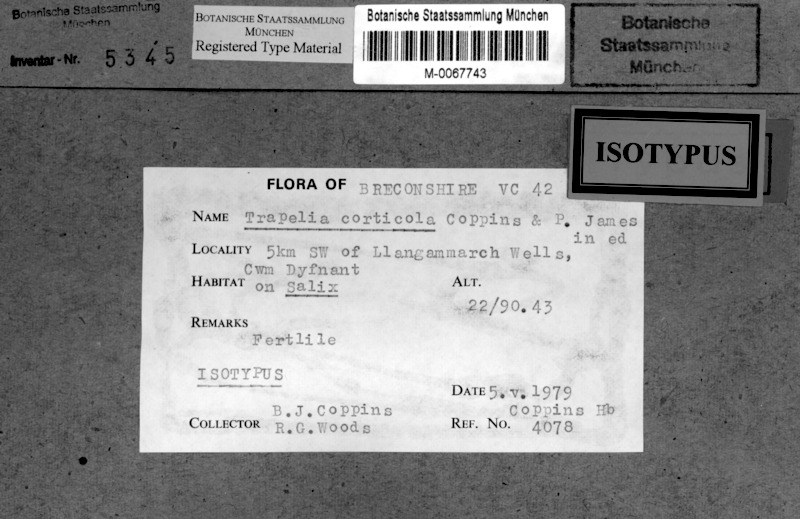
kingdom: Fungi
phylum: Ascomycota
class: Lecanoromycetes
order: Baeomycetales
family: Trapeliaceae
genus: Trapejamesia
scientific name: Trapejamesia corticola
